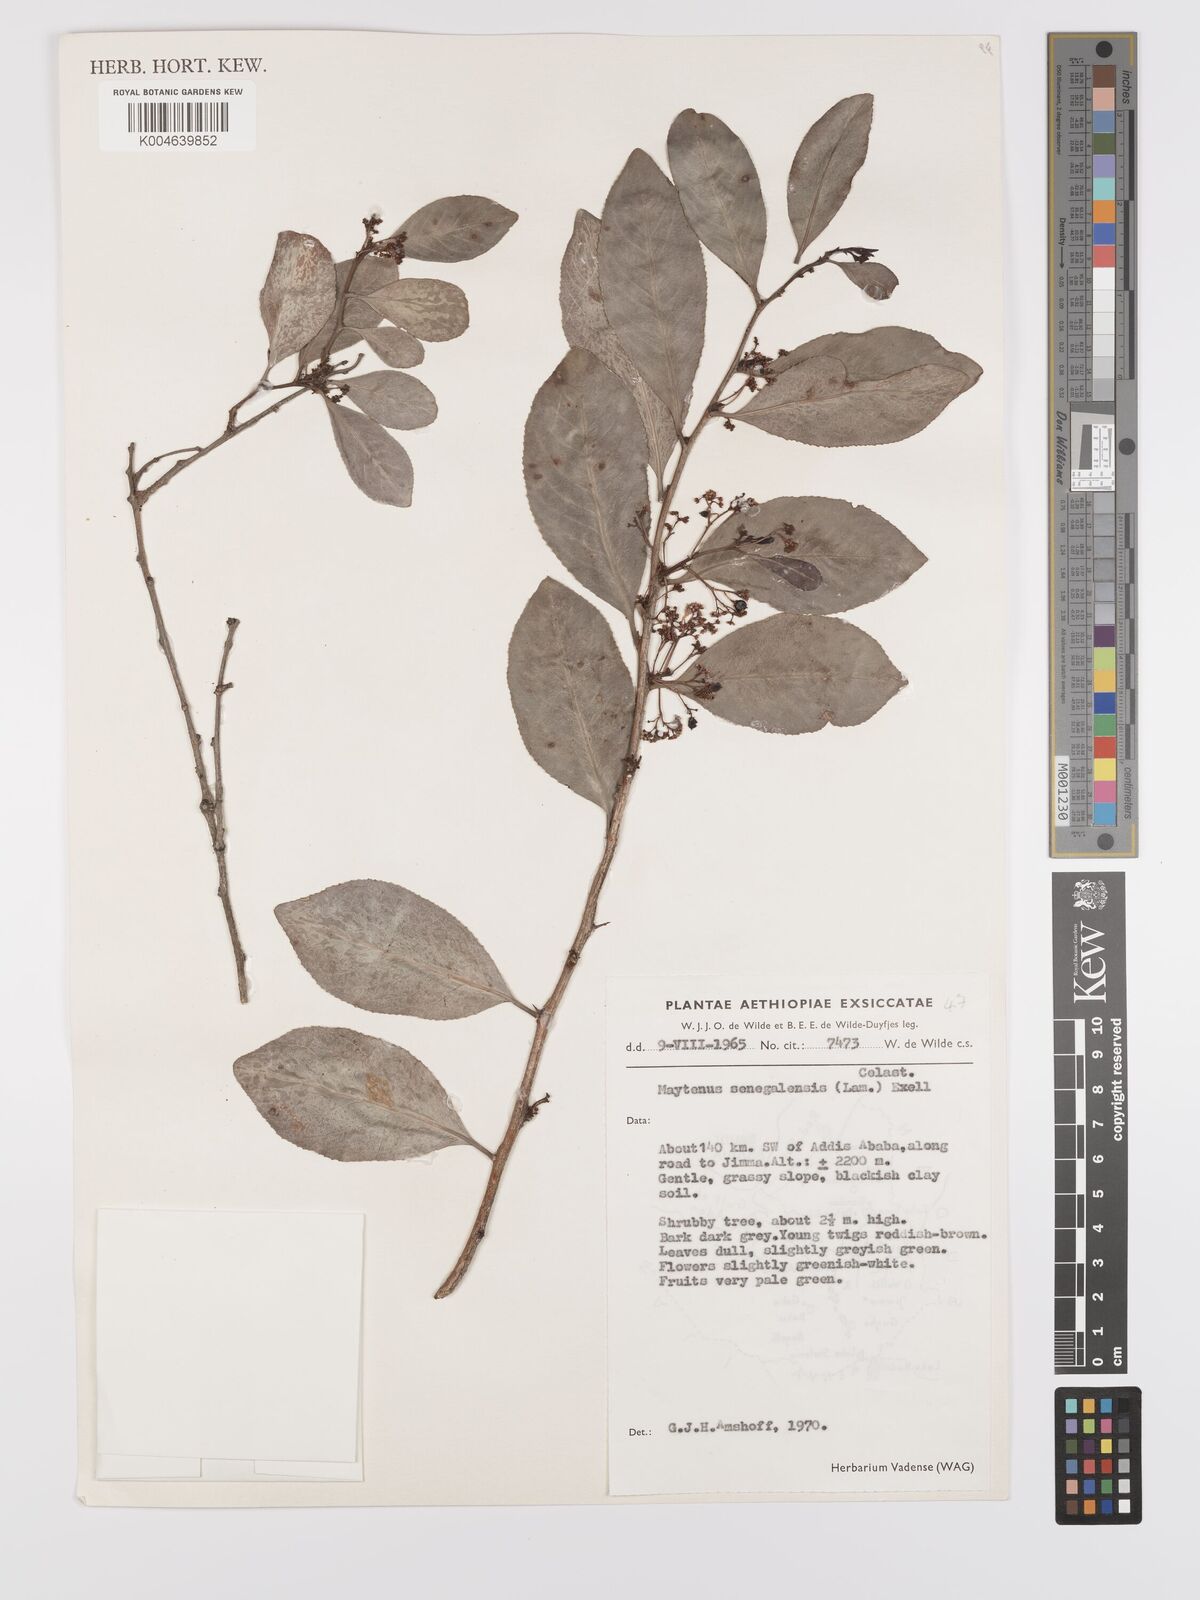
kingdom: Plantae
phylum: Tracheophyta
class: Magnoliopsida
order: Celastrales
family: Celastraceae
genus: Gymnosporia
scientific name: Gymnosporia senegalensis
